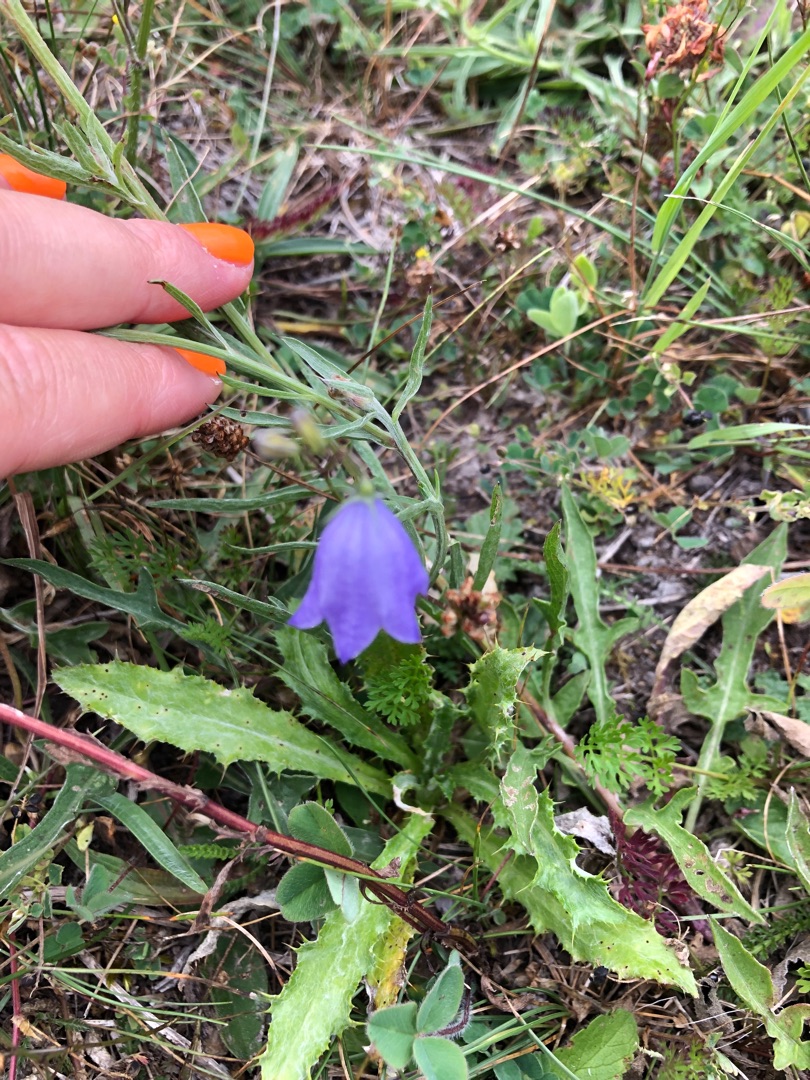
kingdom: Plantae
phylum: Tracheophyta
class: Magnoliopsida
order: Asterales
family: Campanulaceae
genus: Campanula
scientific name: Campanula rotundifolia
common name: Liden klokke
